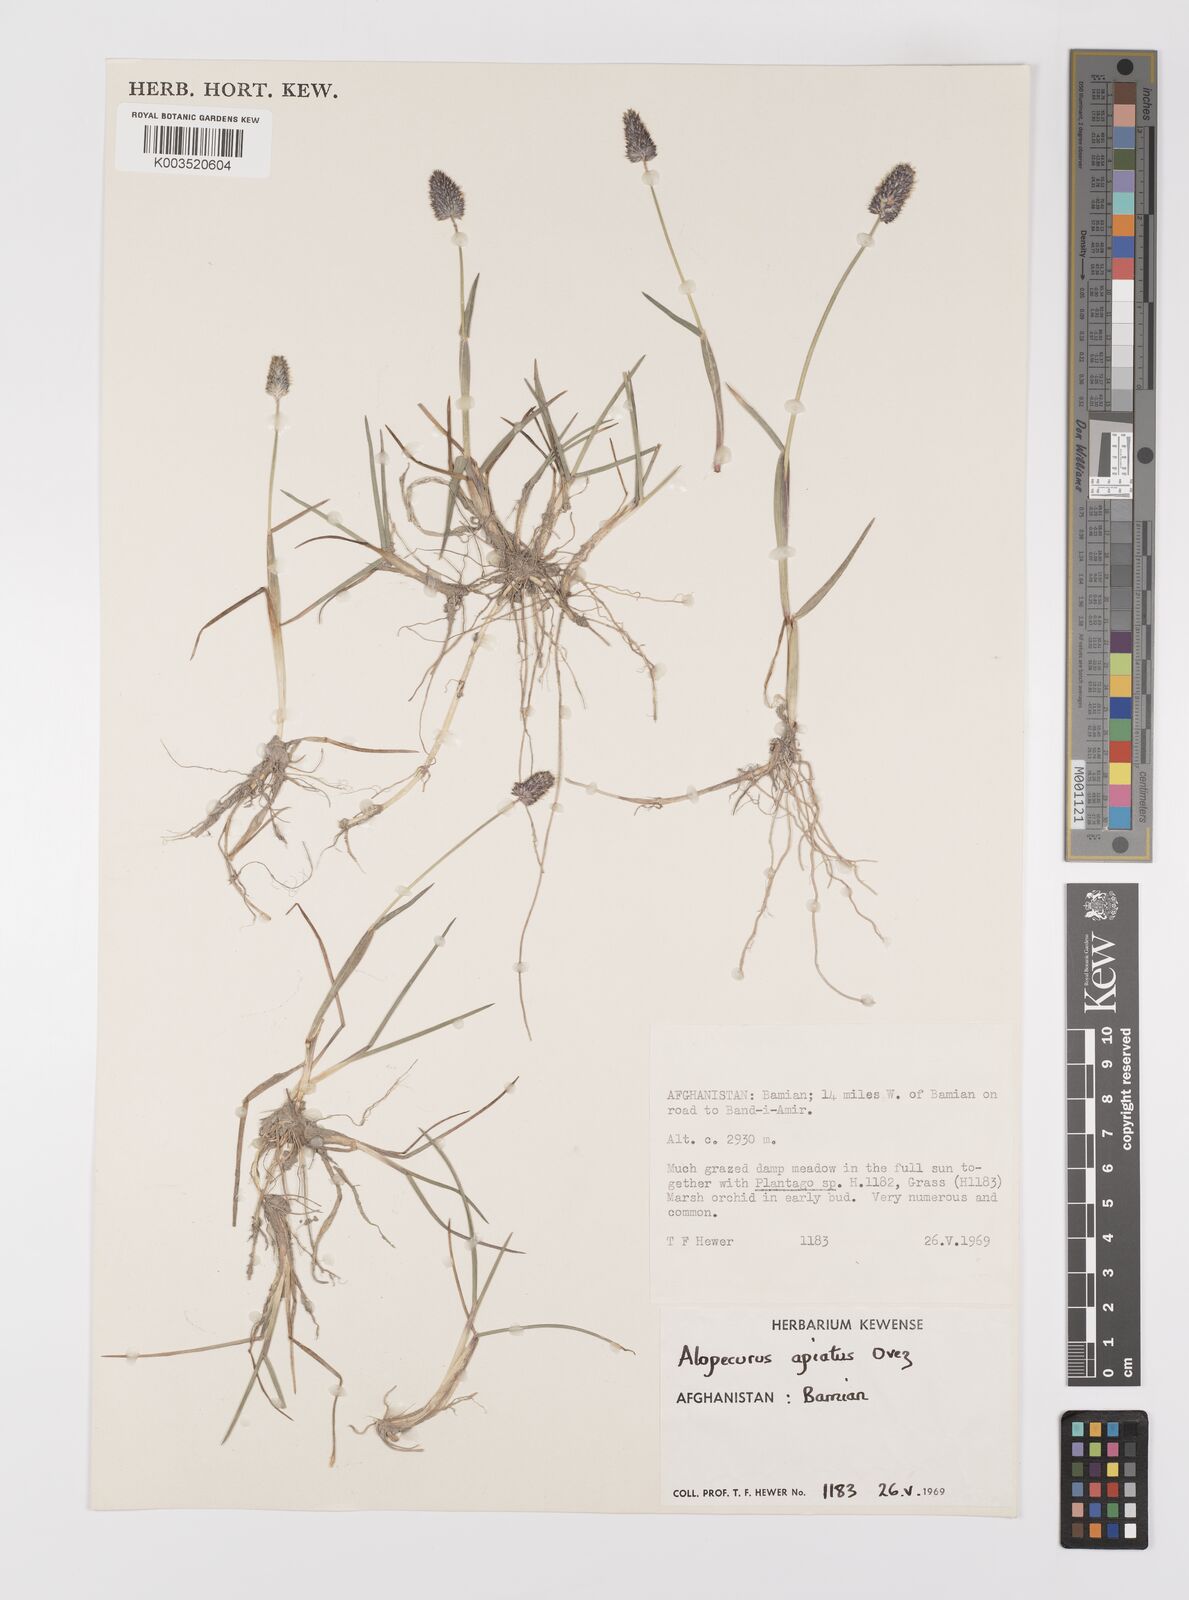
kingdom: Plantae
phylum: Tracheophyta
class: Liliopsida
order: Poales
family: Poaceae
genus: Alopecurus
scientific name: Alopecurus apiatus
